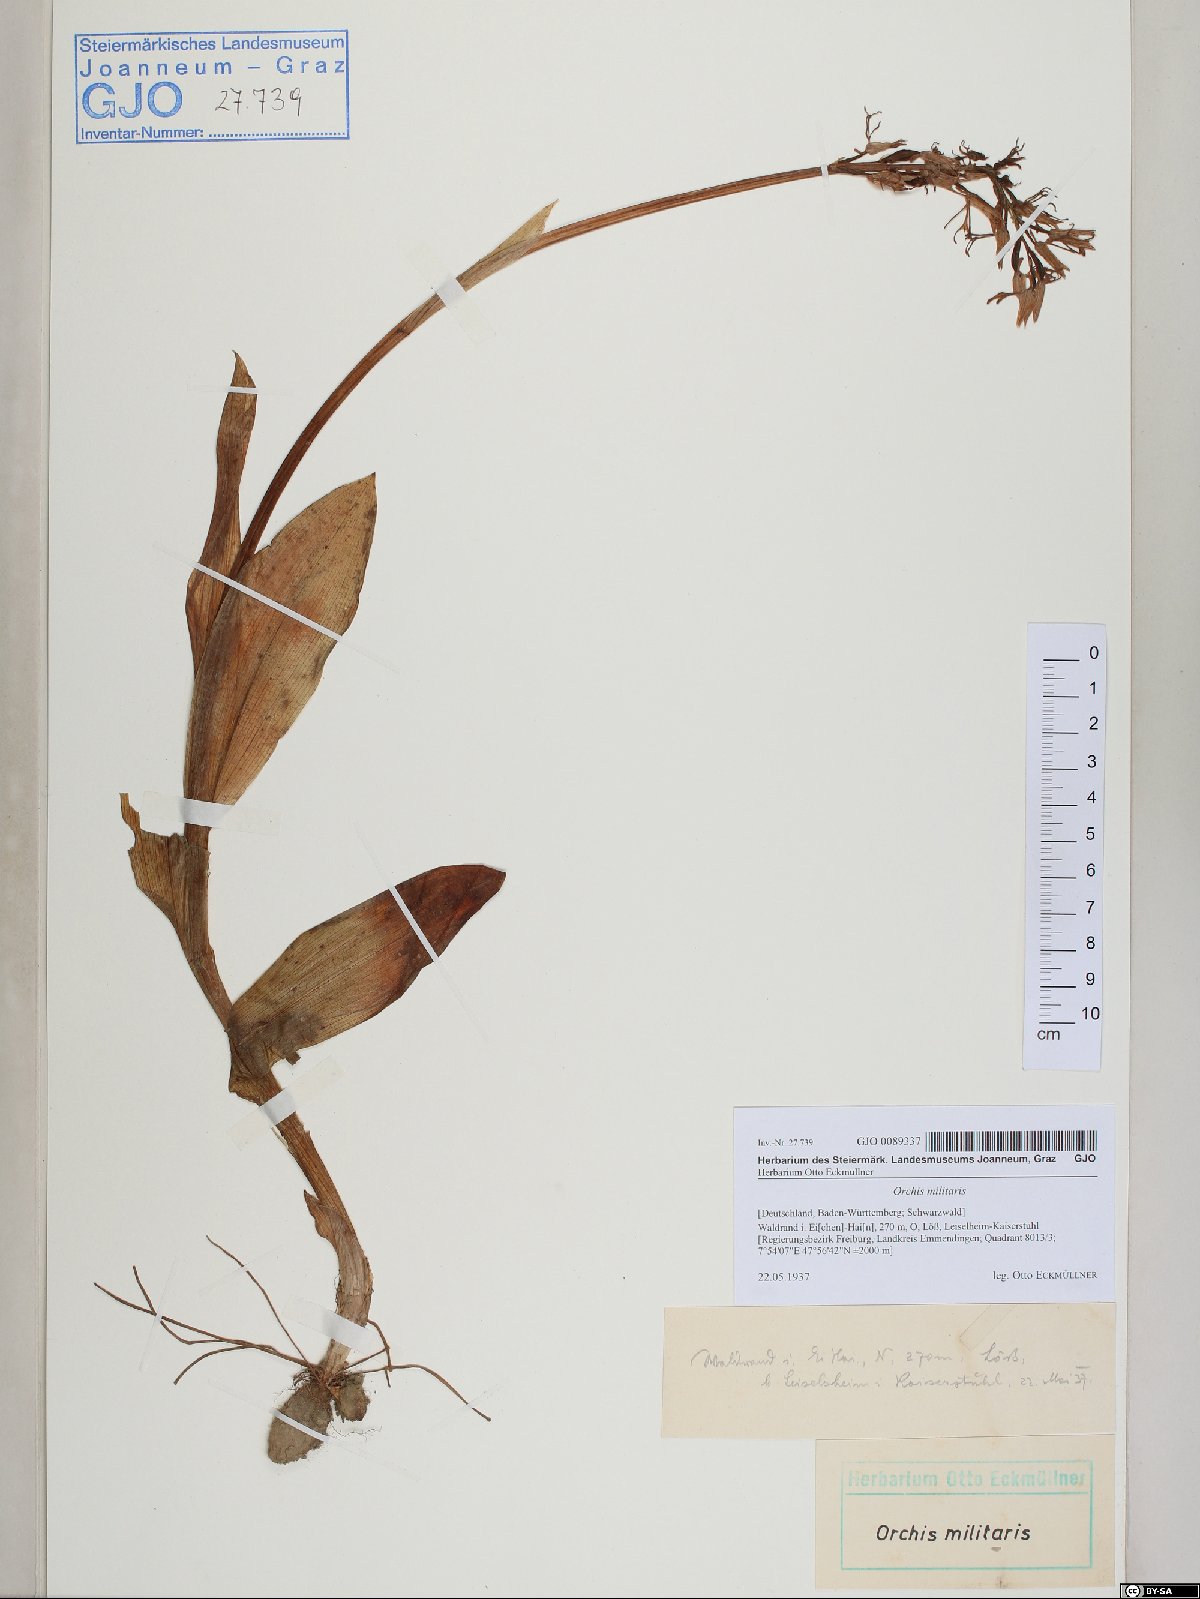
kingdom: Plantae
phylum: Tracheophyta
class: Liliopsida
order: Asparagales
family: Orchidaceae
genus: Orchis
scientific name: Orchis militaris
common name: Military orchid
